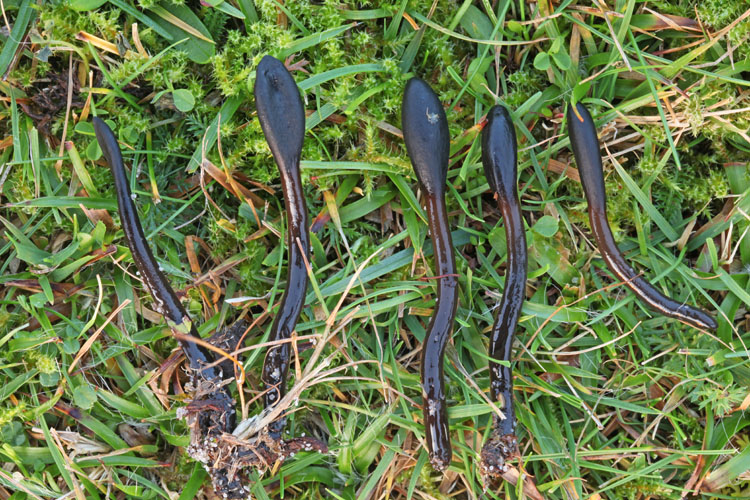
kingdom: Fungi
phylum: Ascomycota
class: Geoglossomycetes
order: Geoglossales
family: Geoglossaceae
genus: Glutinoglossum
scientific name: Glutinoglossum glutinosum
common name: slimet jordtunge
